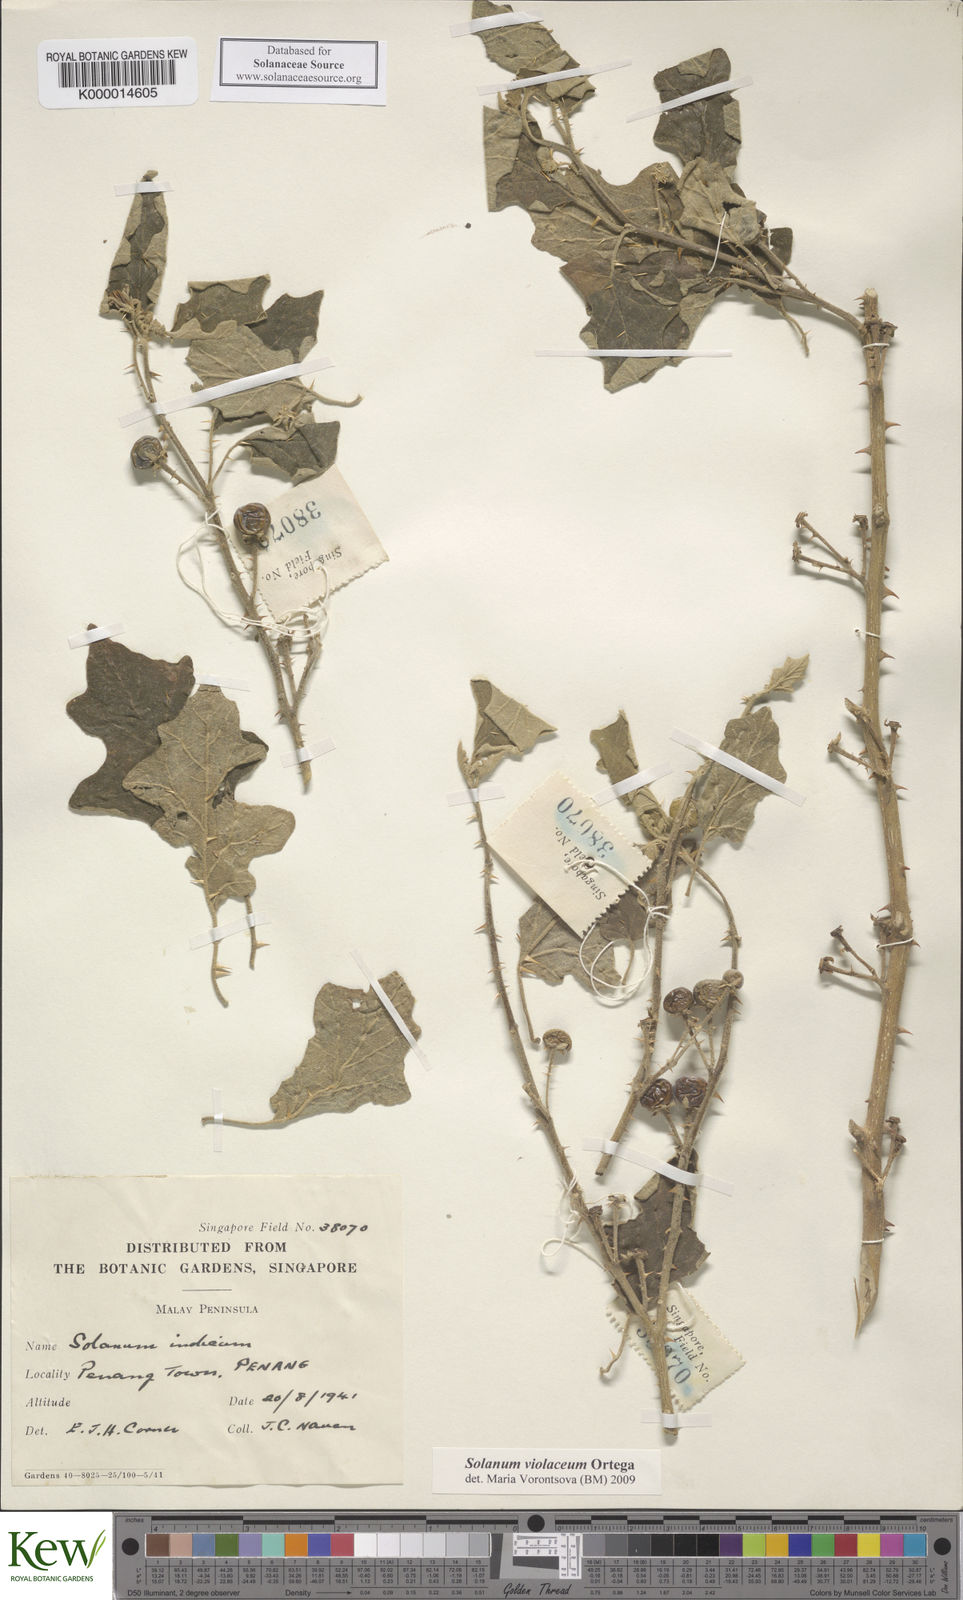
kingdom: Plantae
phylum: Tracheophyta
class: Magnoliopsida
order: Solanales
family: Solanaceae
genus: Solanum
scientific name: Solanum violaceum
